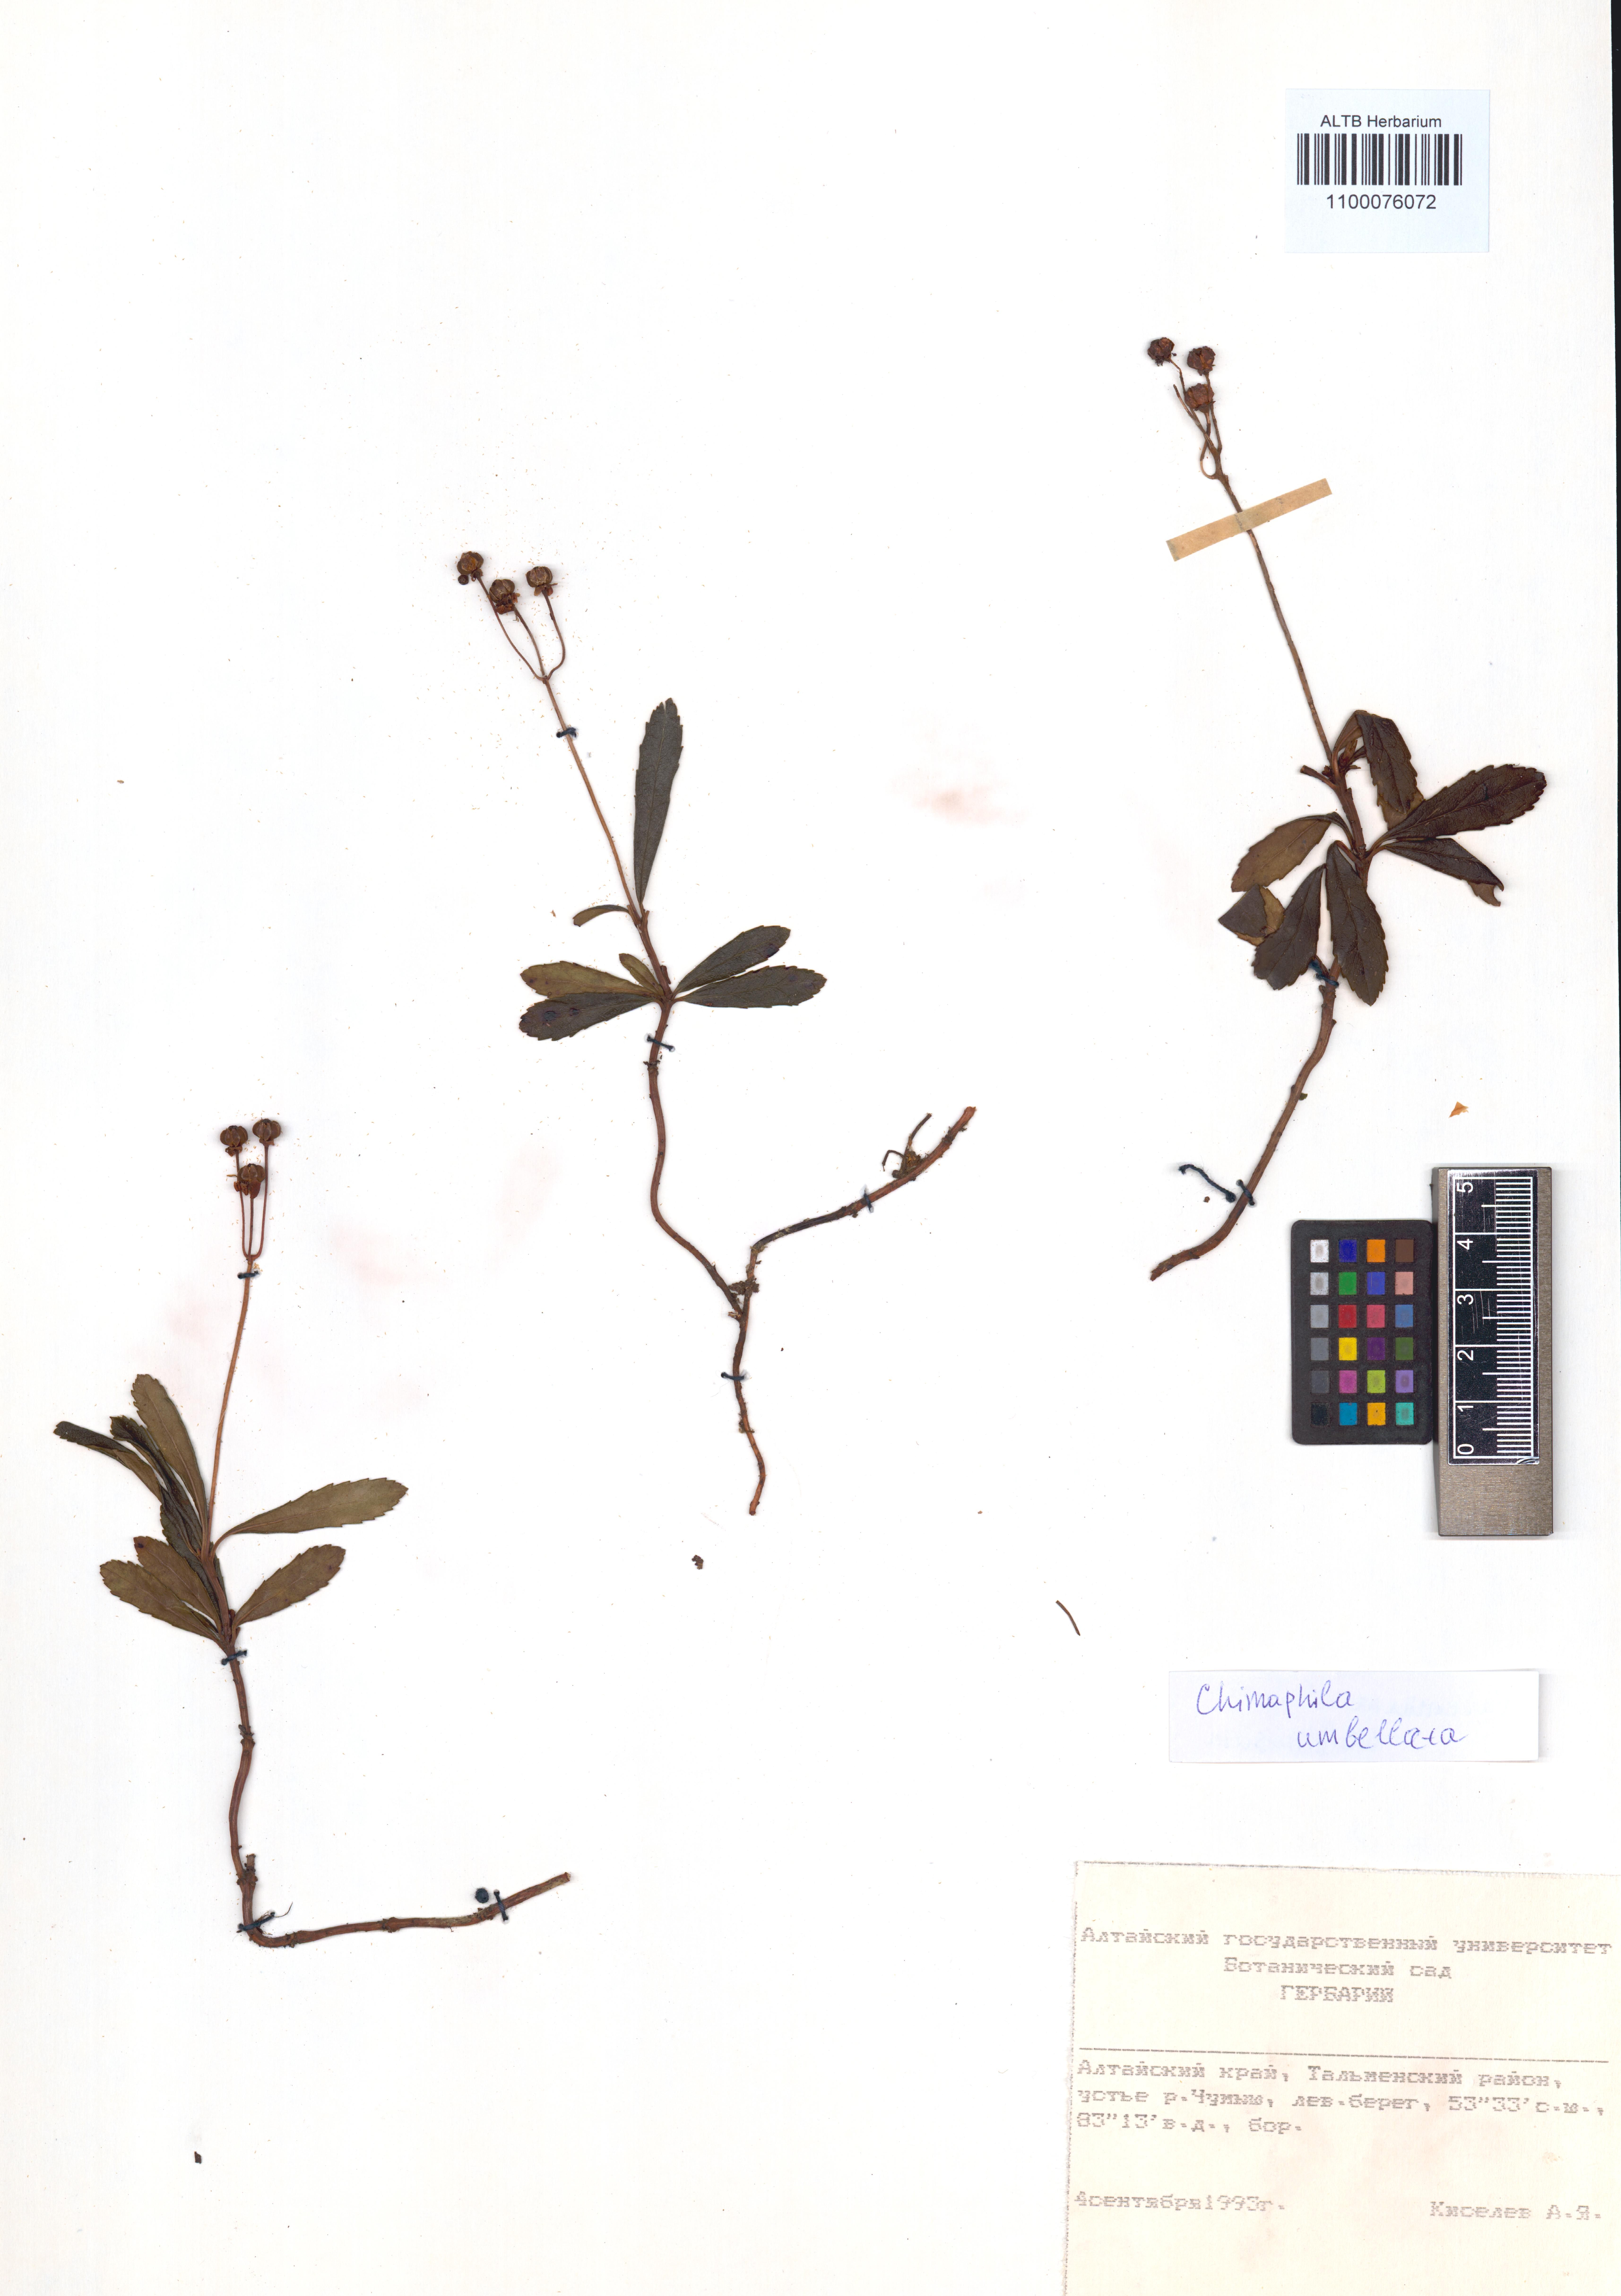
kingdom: Plantae
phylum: Tracheophyta
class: Magnoliopsida
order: Ericales
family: Ericaceae
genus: Chimaphila
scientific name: Chimaphila umbellata
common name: Pipsissewa
